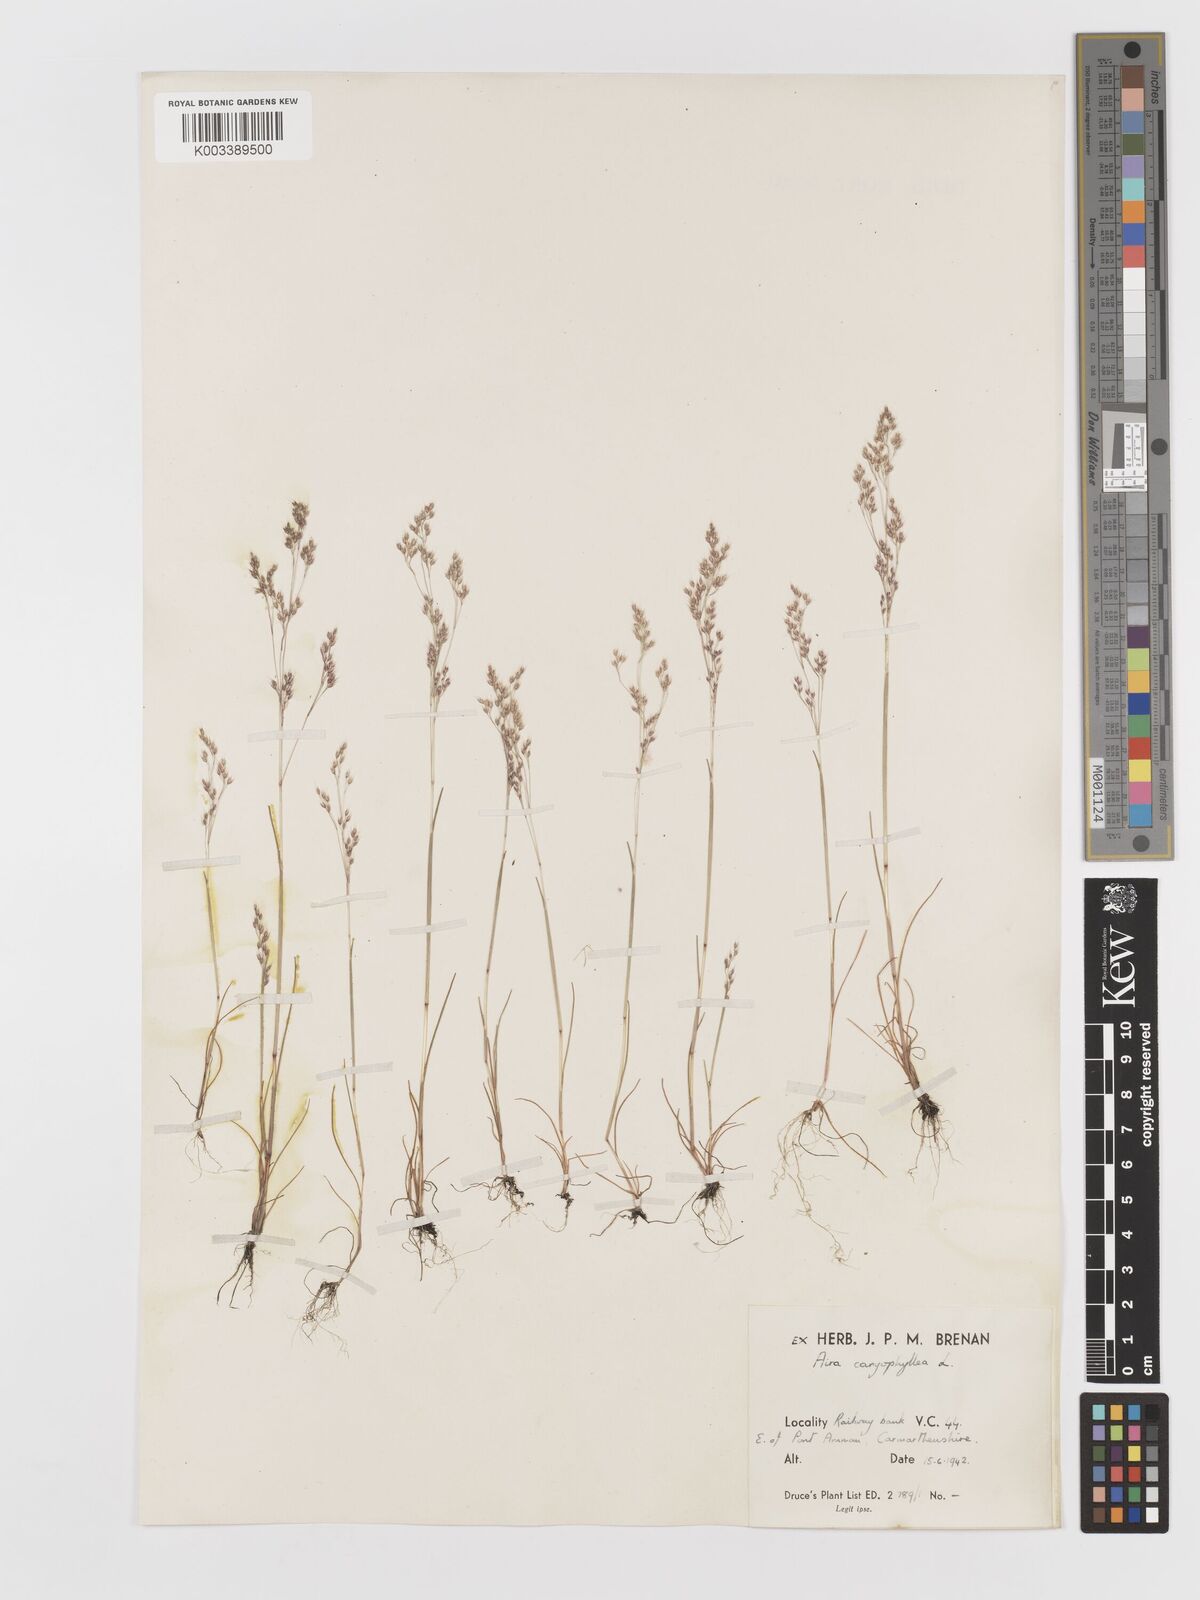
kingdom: Plantae
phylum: Tracheophyta
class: Liliopsida
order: Poales
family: Poaceae
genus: Aira
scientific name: Aira caryophyllea
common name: Silver hairgrass
